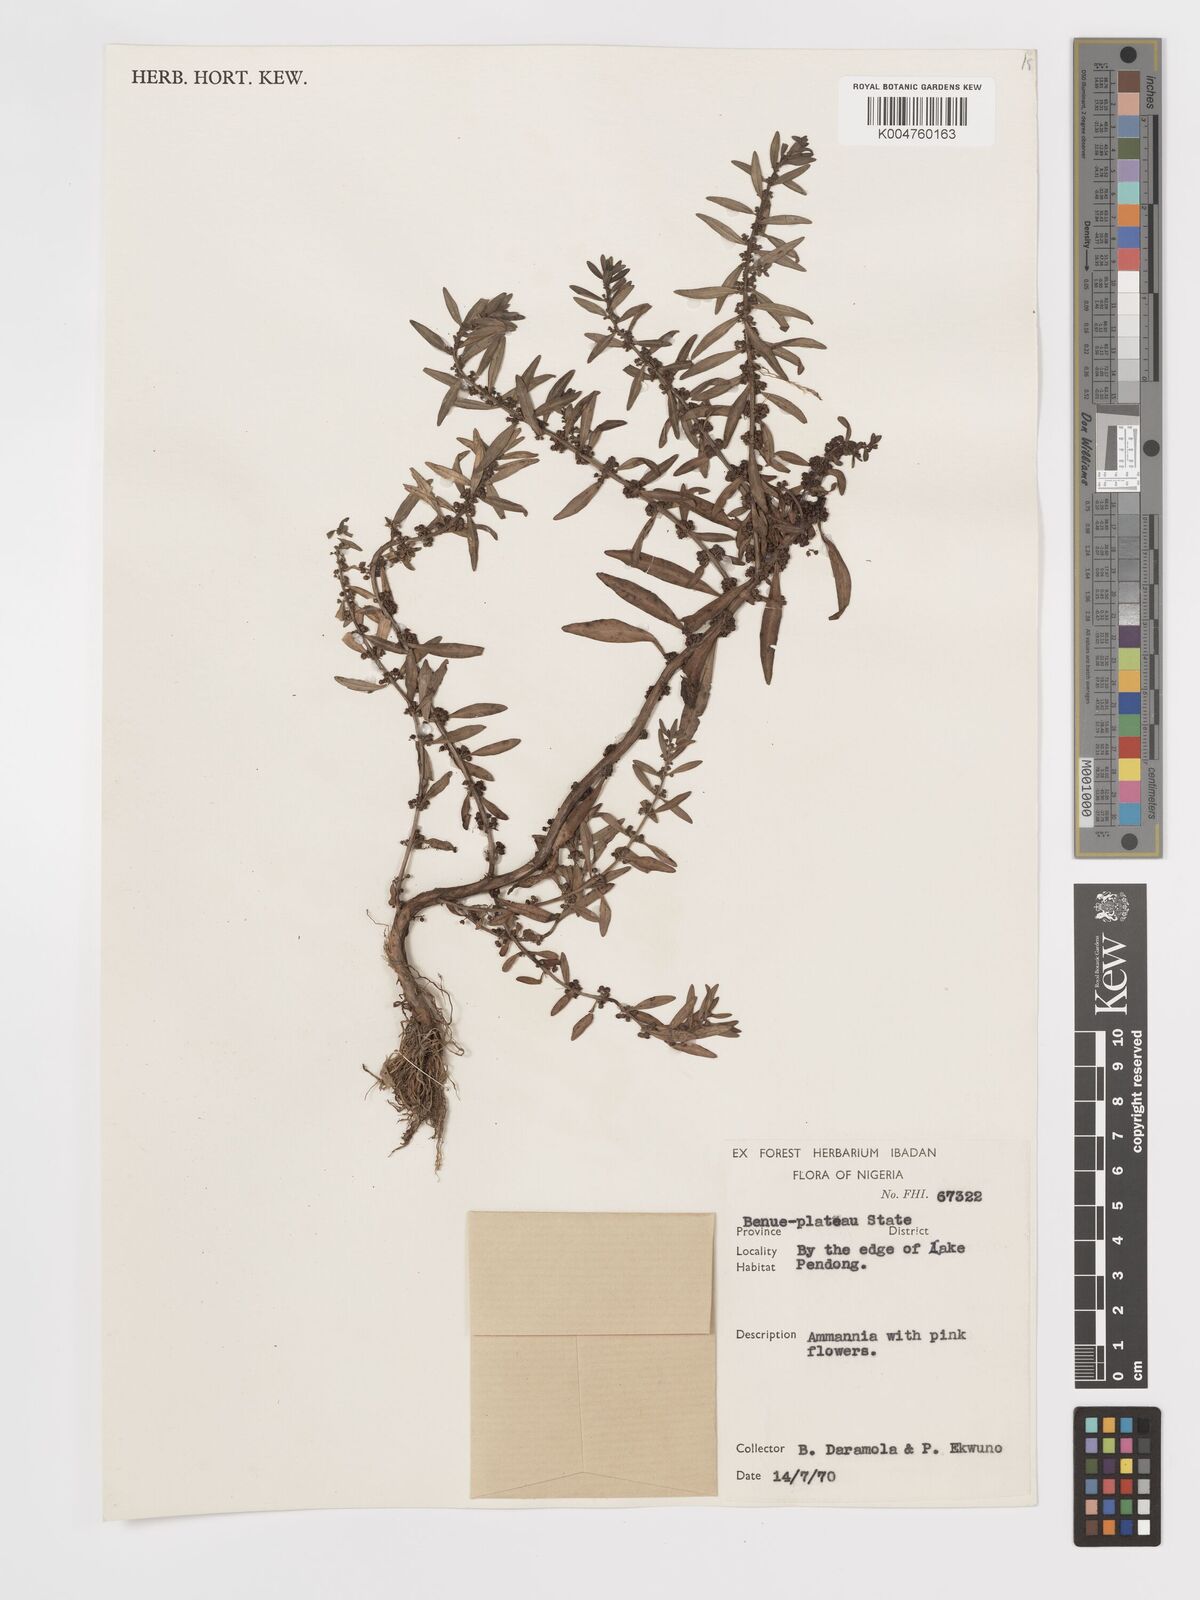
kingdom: Plantae
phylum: Tracheophyta
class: Magnoliopsida
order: Myrtales
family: Lythraceae
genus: Ammannia
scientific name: Ammannia
